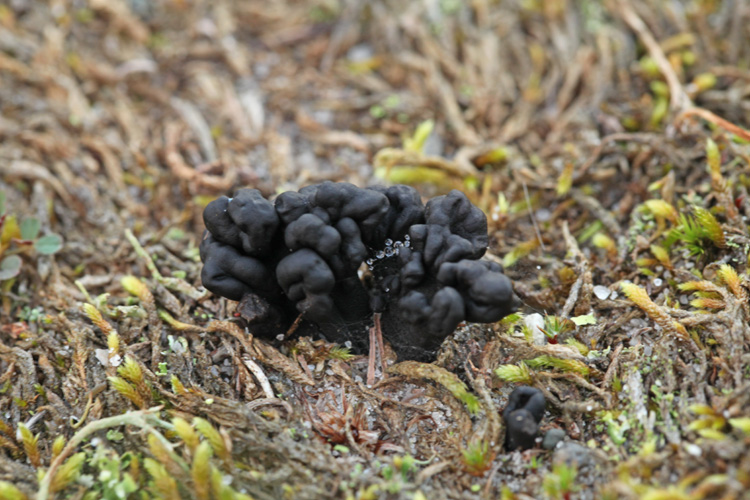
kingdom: Fungi
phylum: Ascomycota
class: Geoglossomycetes
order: Geoglossales
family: Geoglossaceae
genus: Sabuloglossum
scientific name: Sabuloglossum arenarium
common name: klit-jordtunge
